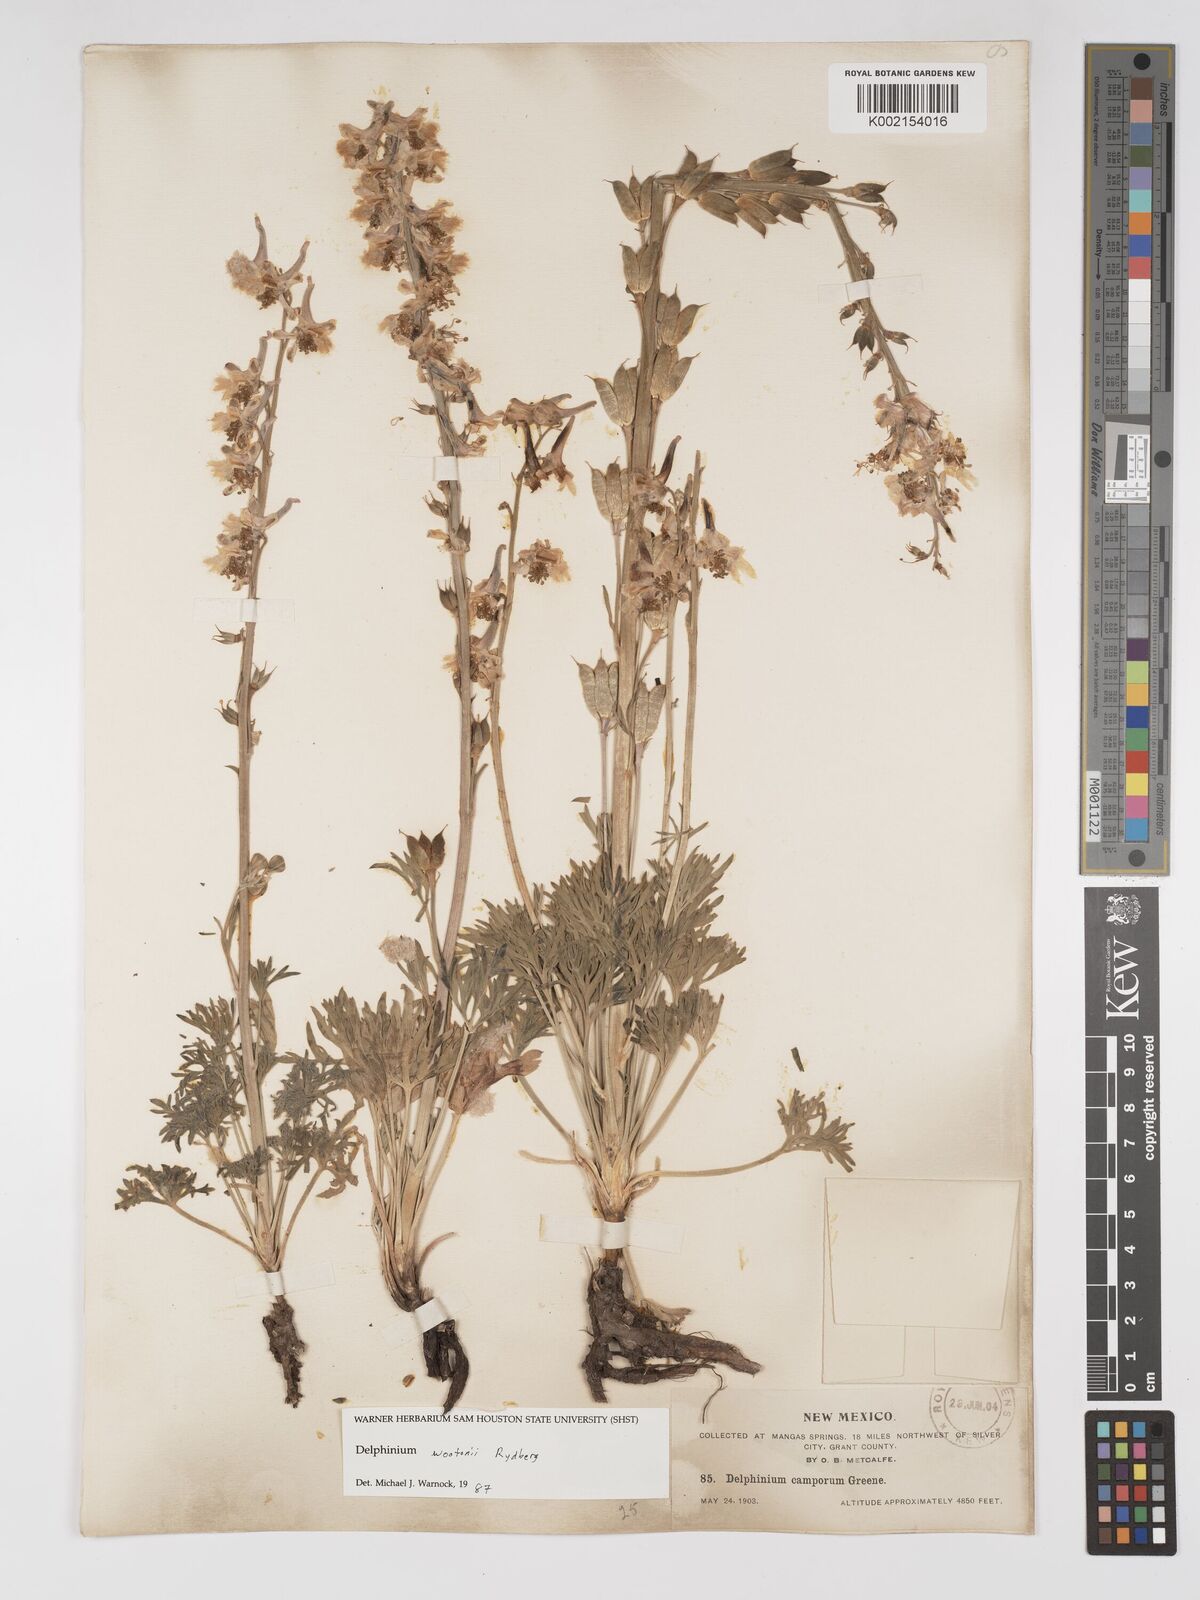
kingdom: Plantae
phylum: Tracheophyta
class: Magnoliopsida
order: Ranunculales
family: Ranunculaceae
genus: Delphinium
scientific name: Delphinium wootonii
